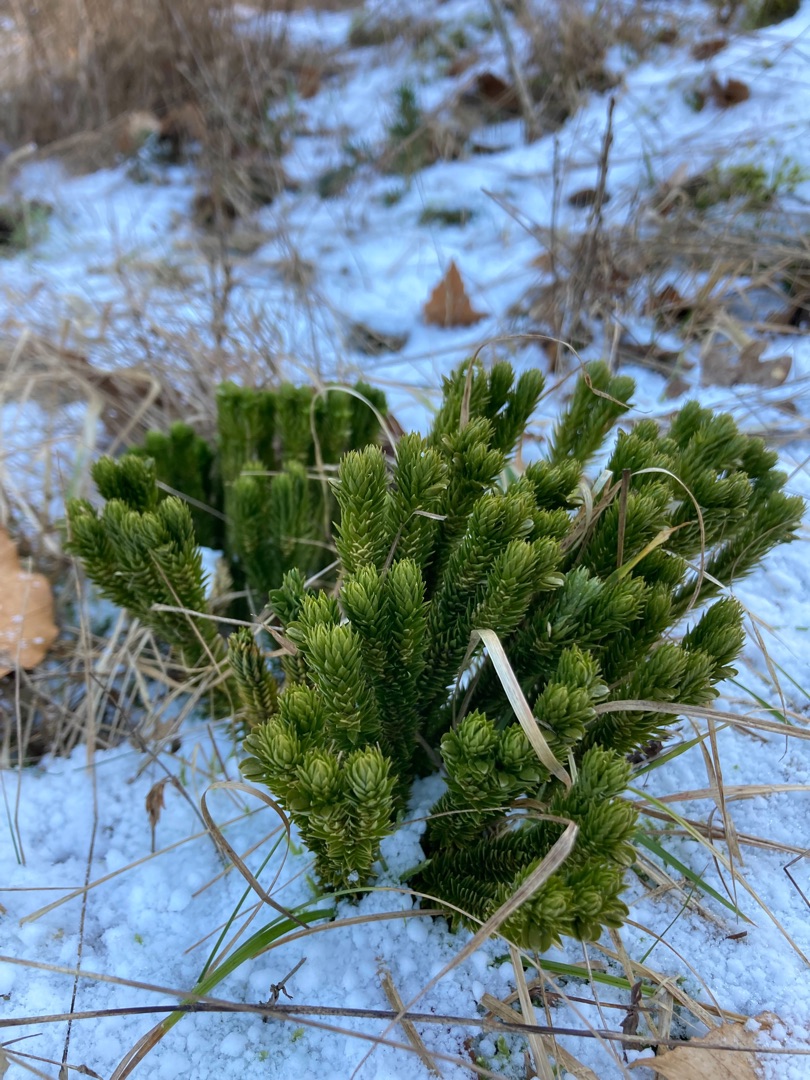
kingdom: Plantae
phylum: Tracheophyta
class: Lycopodiopsida
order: Lycopodiales
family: Lycopodiaceae
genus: Huperzia
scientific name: Huperzia selago
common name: Otteradet ulvefod
